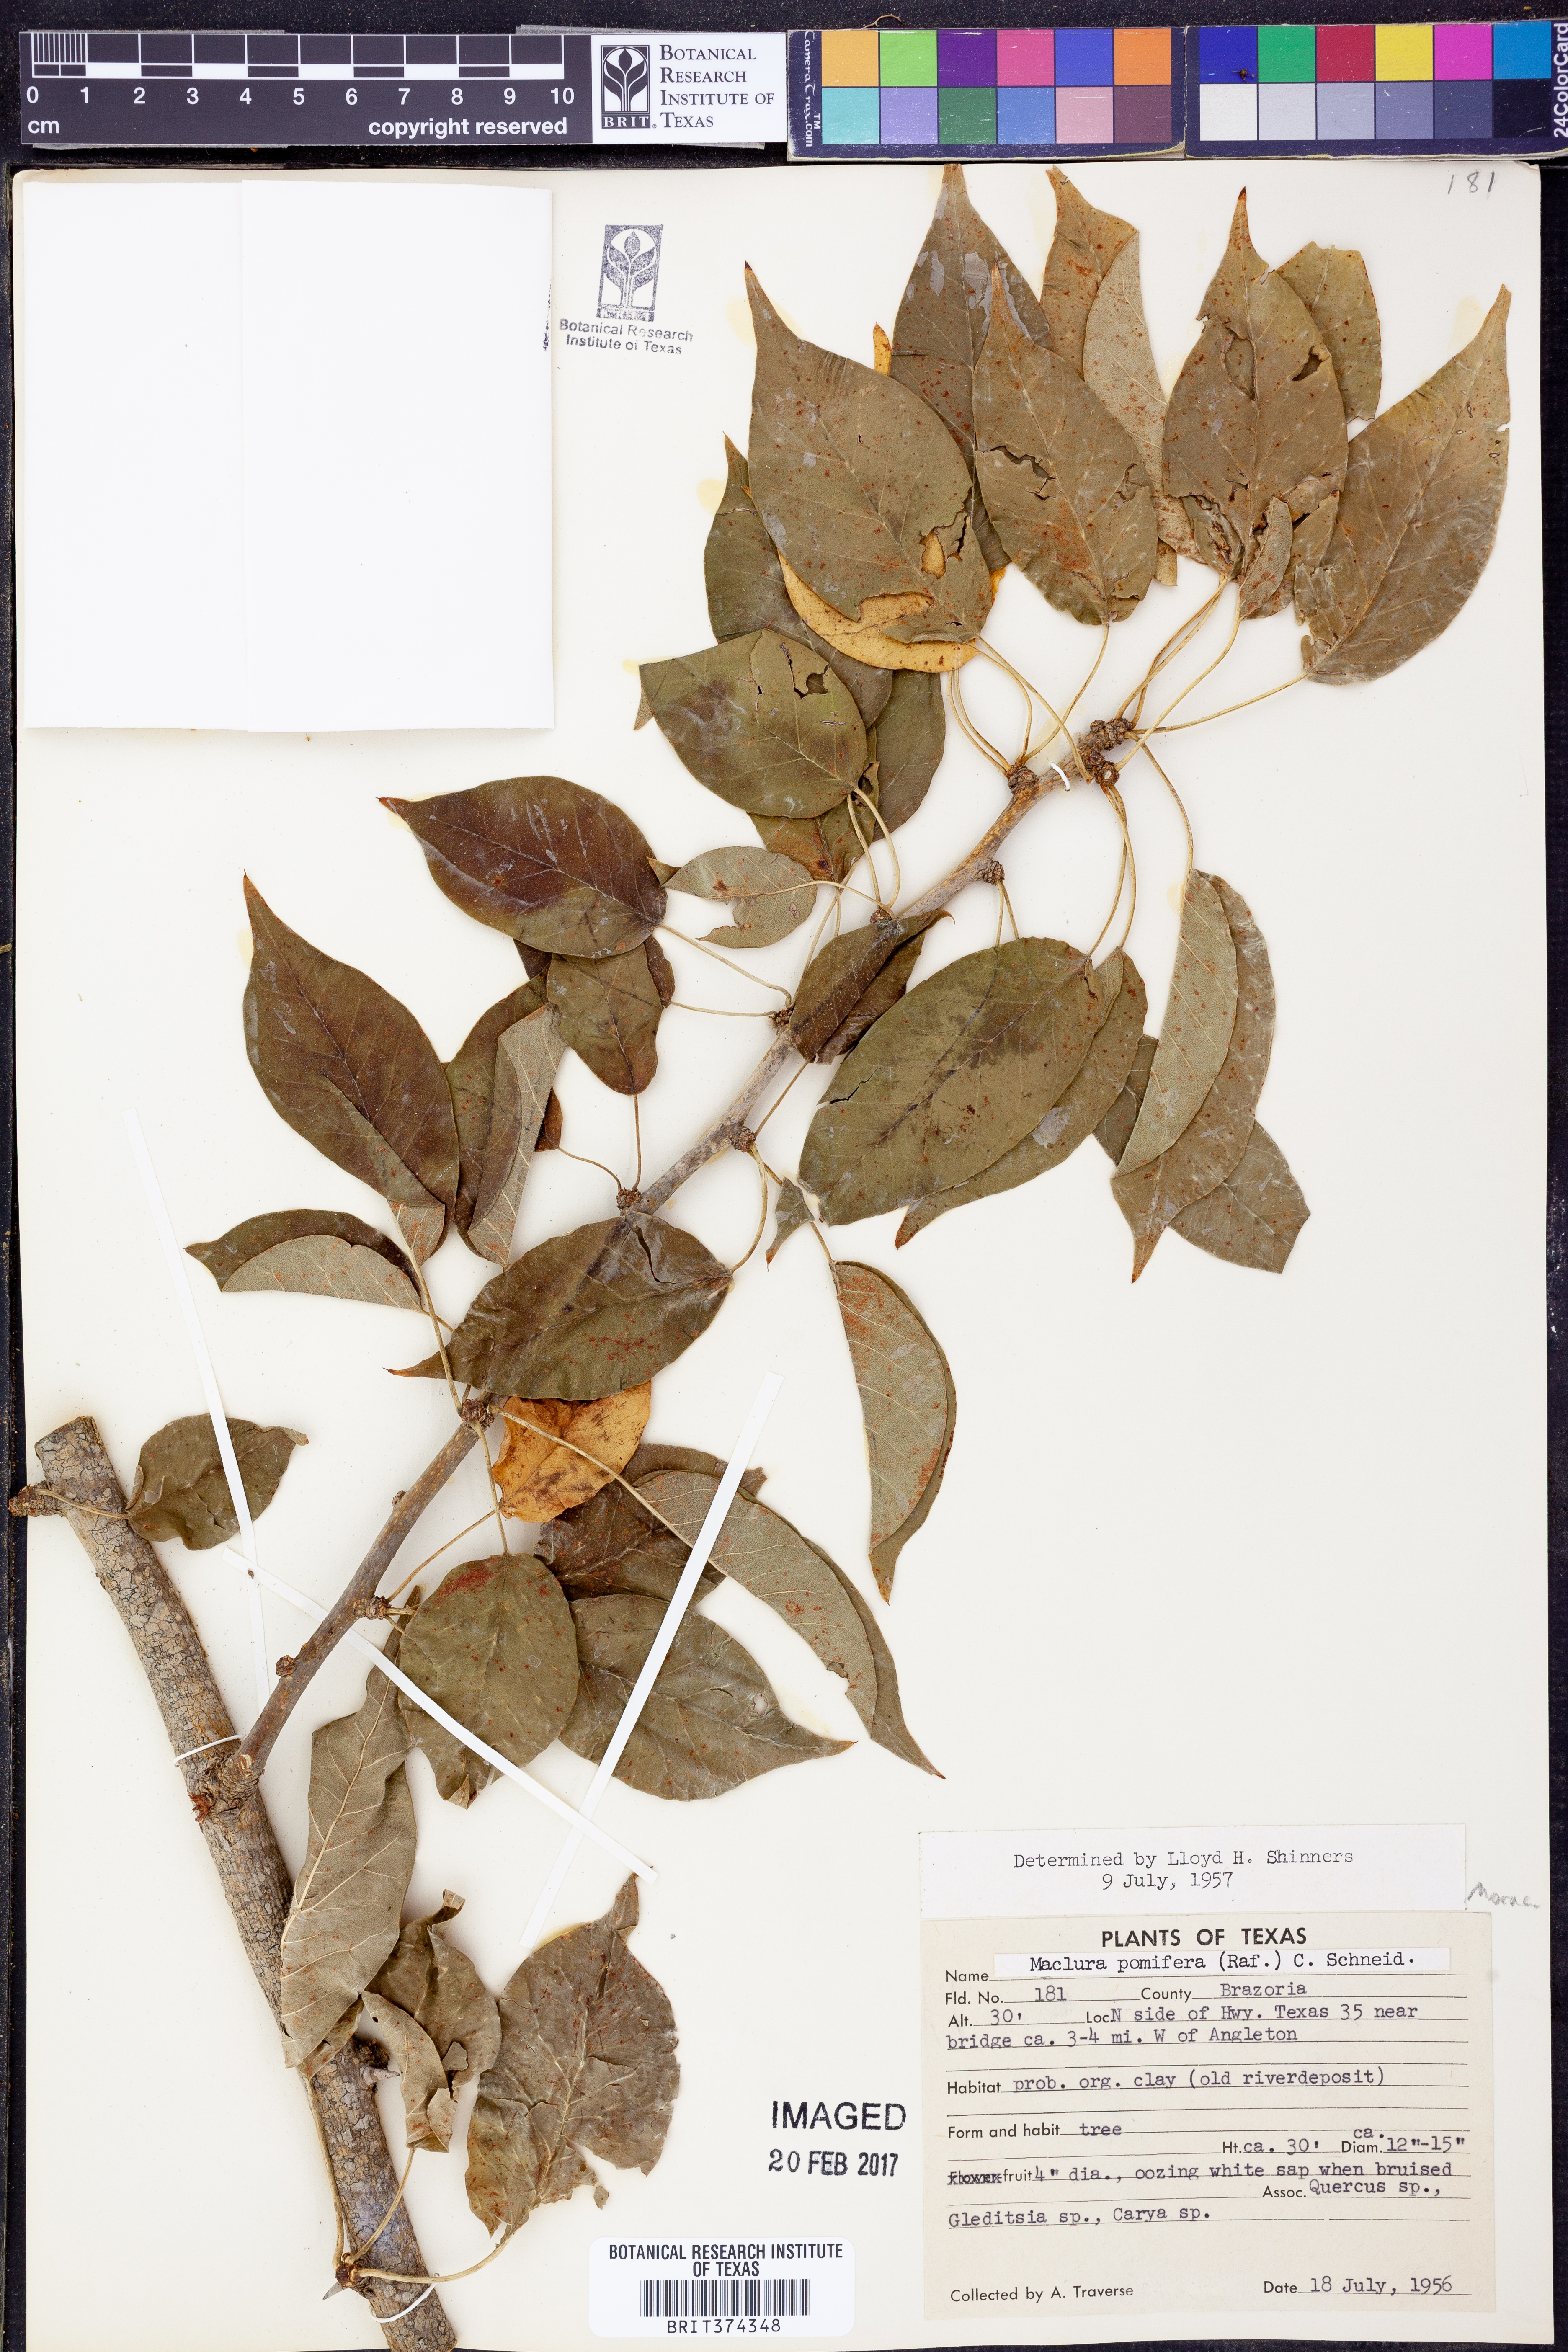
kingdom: Plantae
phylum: Tracheophyta
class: Magnoliopsida
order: Rosales
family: Moraceae
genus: Maclura
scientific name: Maclura pomifera
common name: Osage-orange
